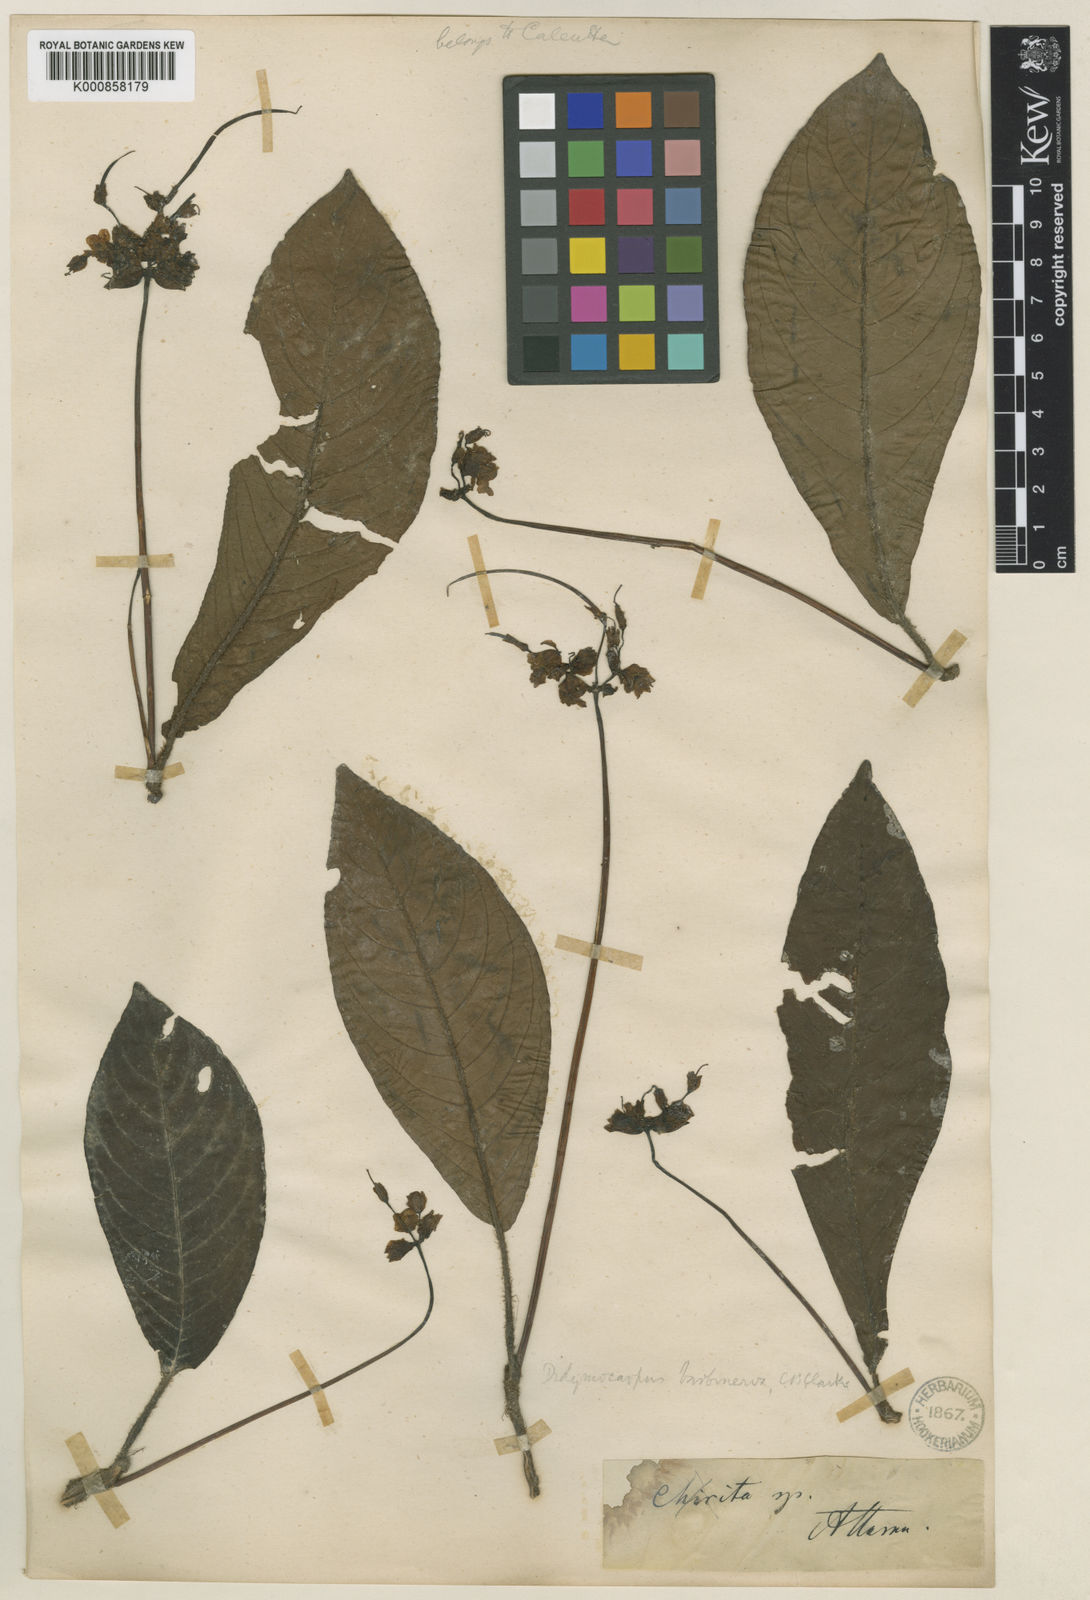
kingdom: Plantae
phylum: Tracheophyta
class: Magnoliopsida
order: Lamiales
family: Gesneriaceae
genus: Henckelia
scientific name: Henckelia
